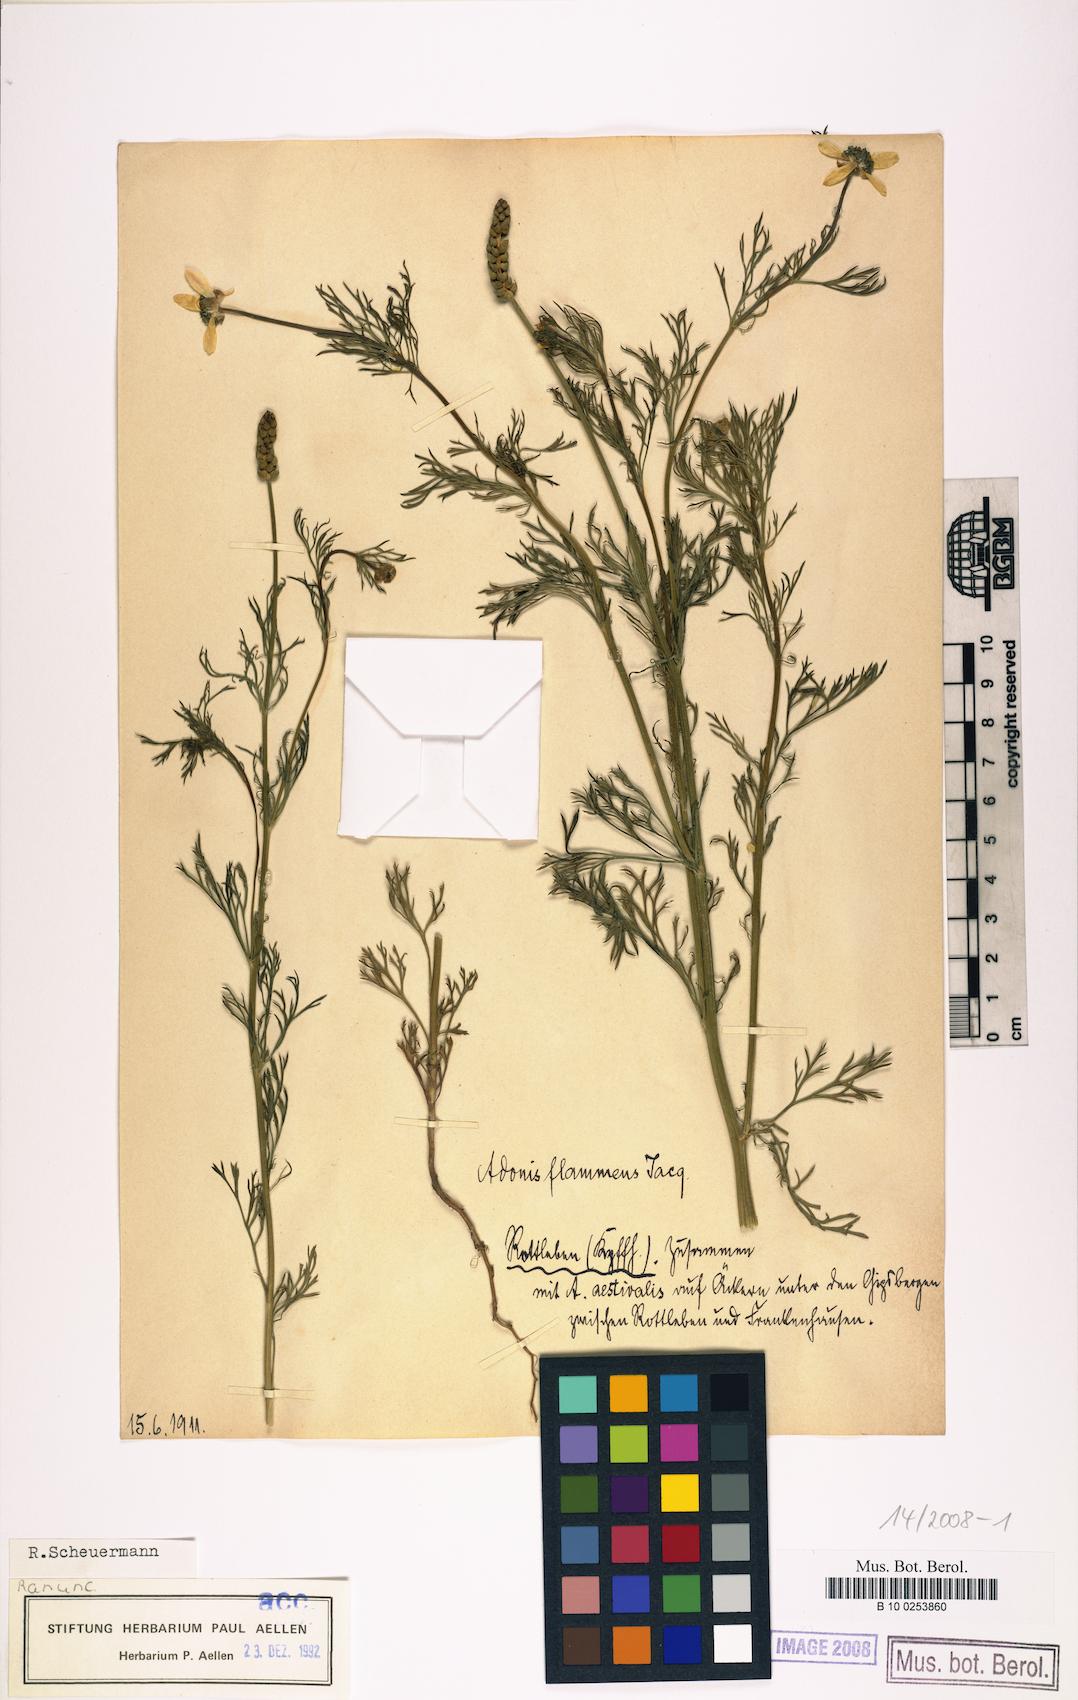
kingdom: Plantae
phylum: Tracheophyta
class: Magnoliopsida
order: Ranunculales
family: Ranunculaceae
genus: Adonis
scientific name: Adonis flammea
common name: Large pheasant's-eye
